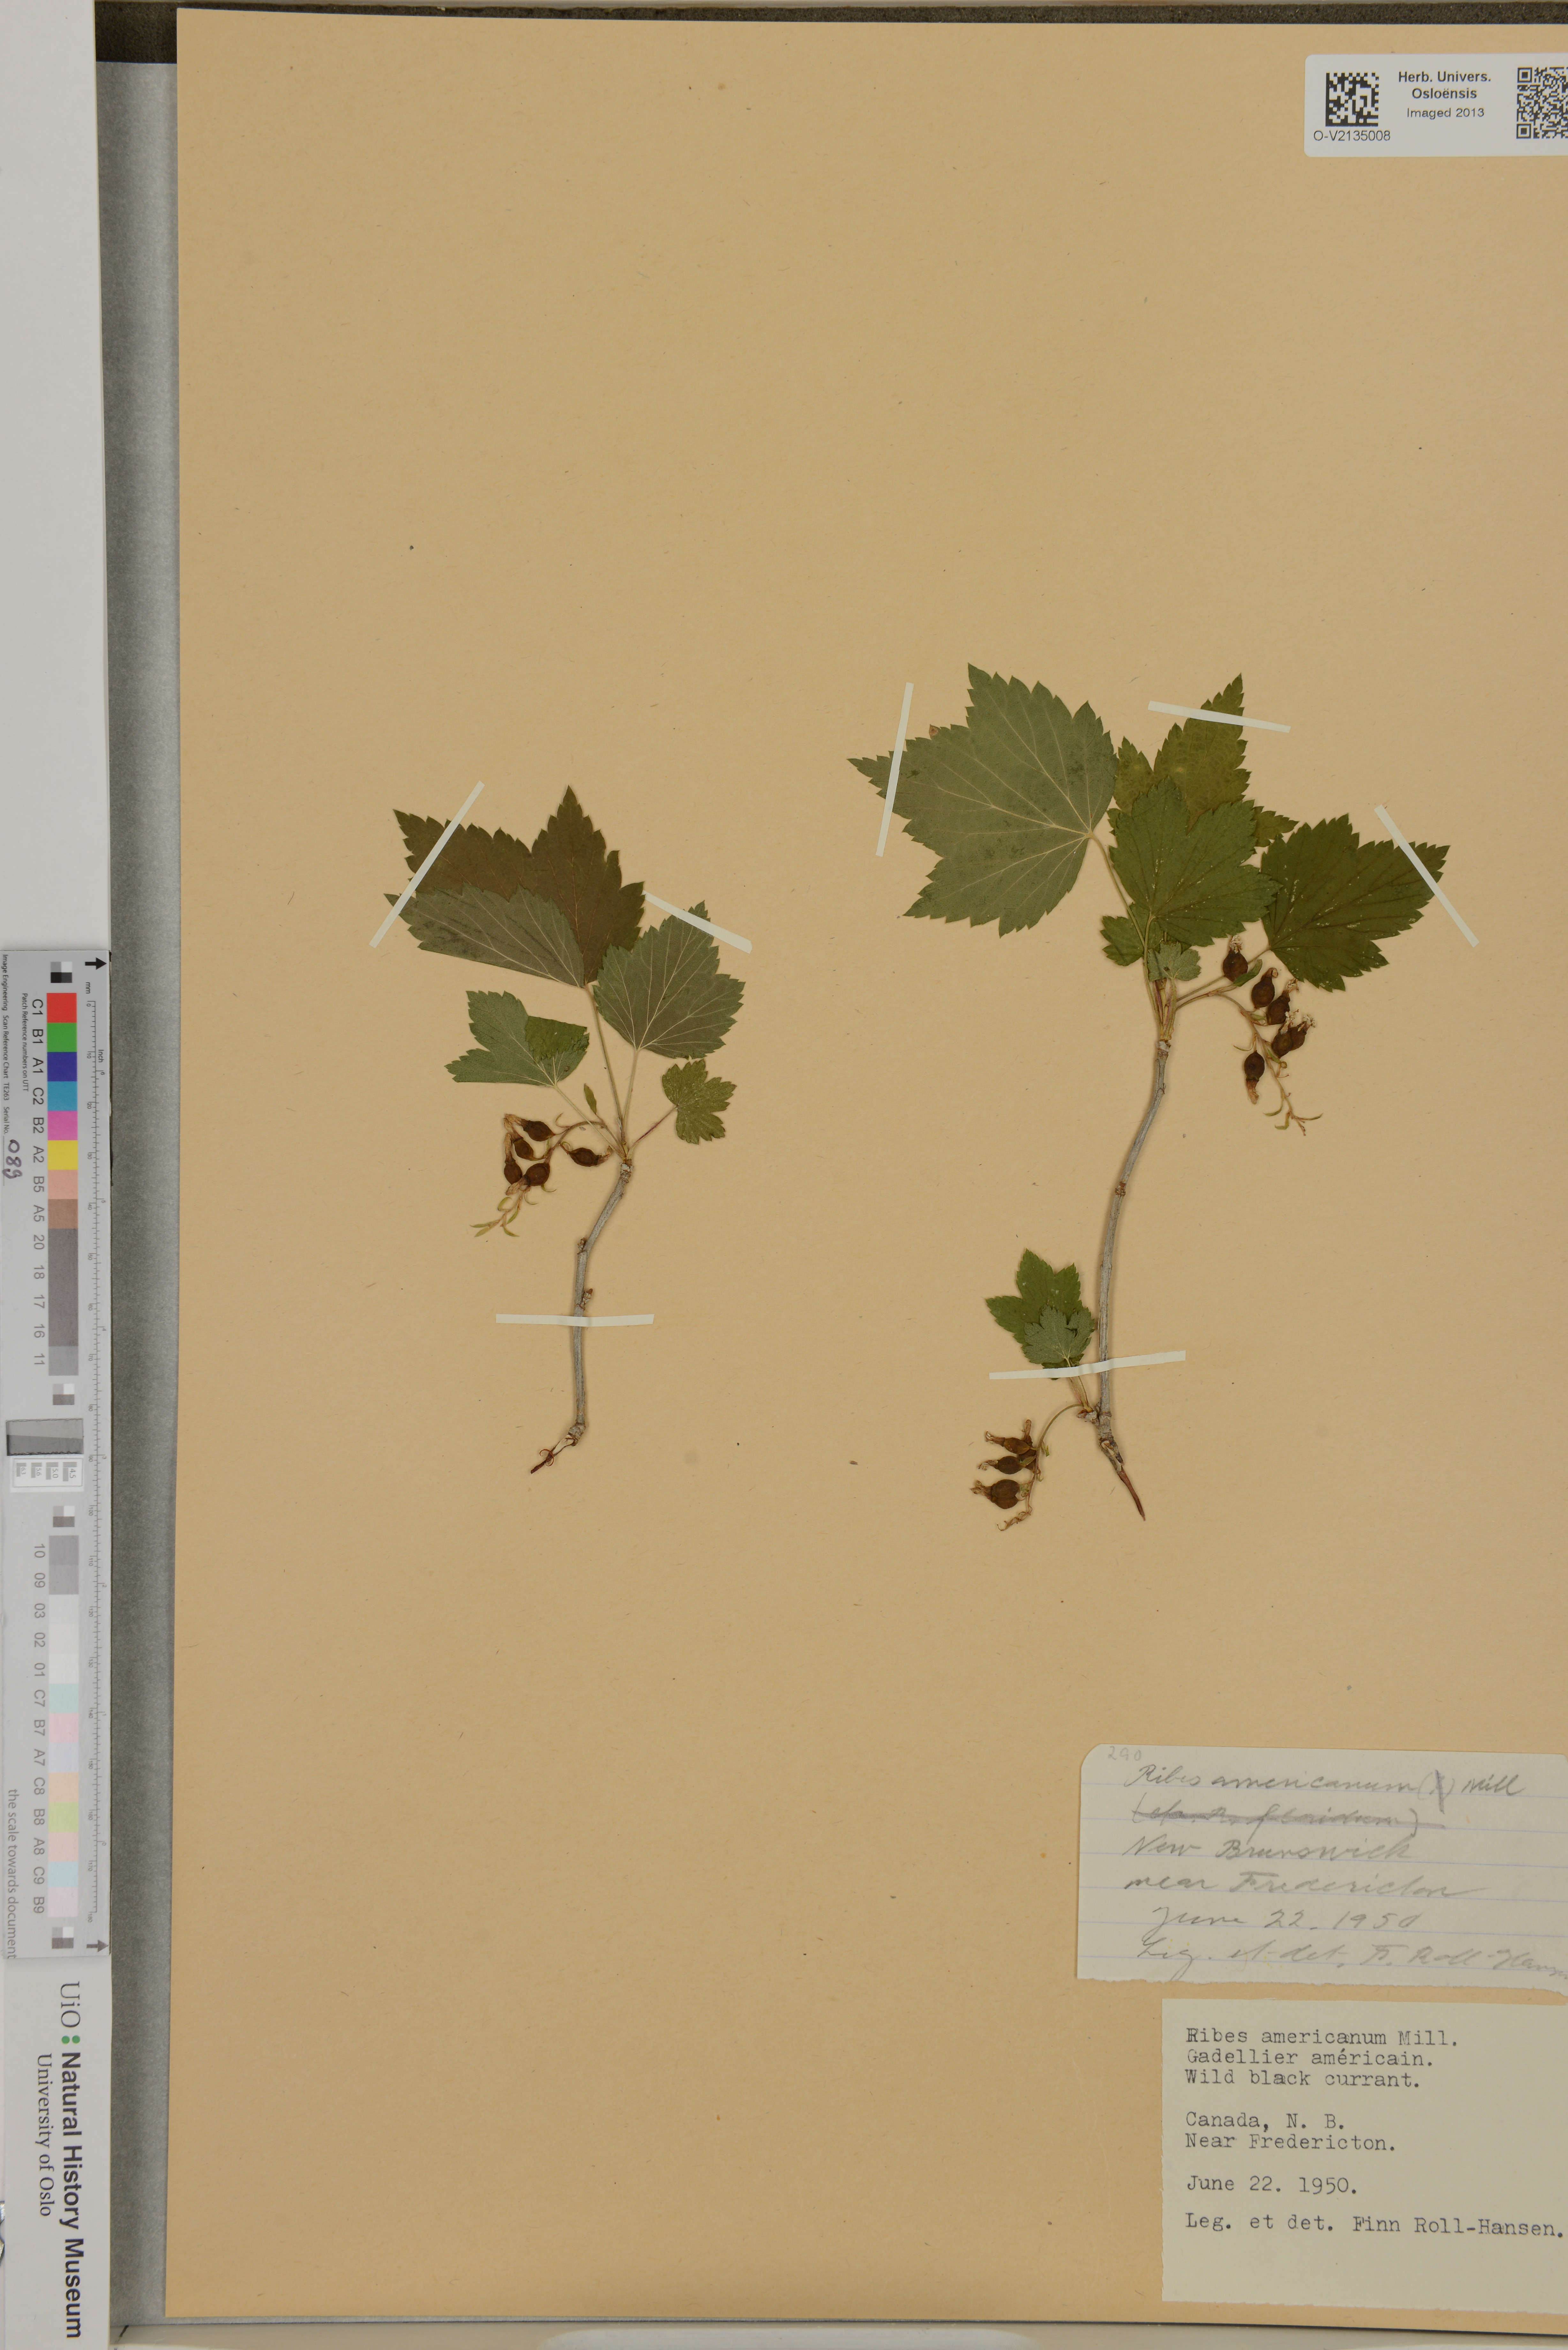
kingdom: Plantae
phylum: Tracheophyta
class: Magnoliopsida
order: Saxifragales
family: Grossulariaceae
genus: Ribes
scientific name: Ribes americanum
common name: American black currant
